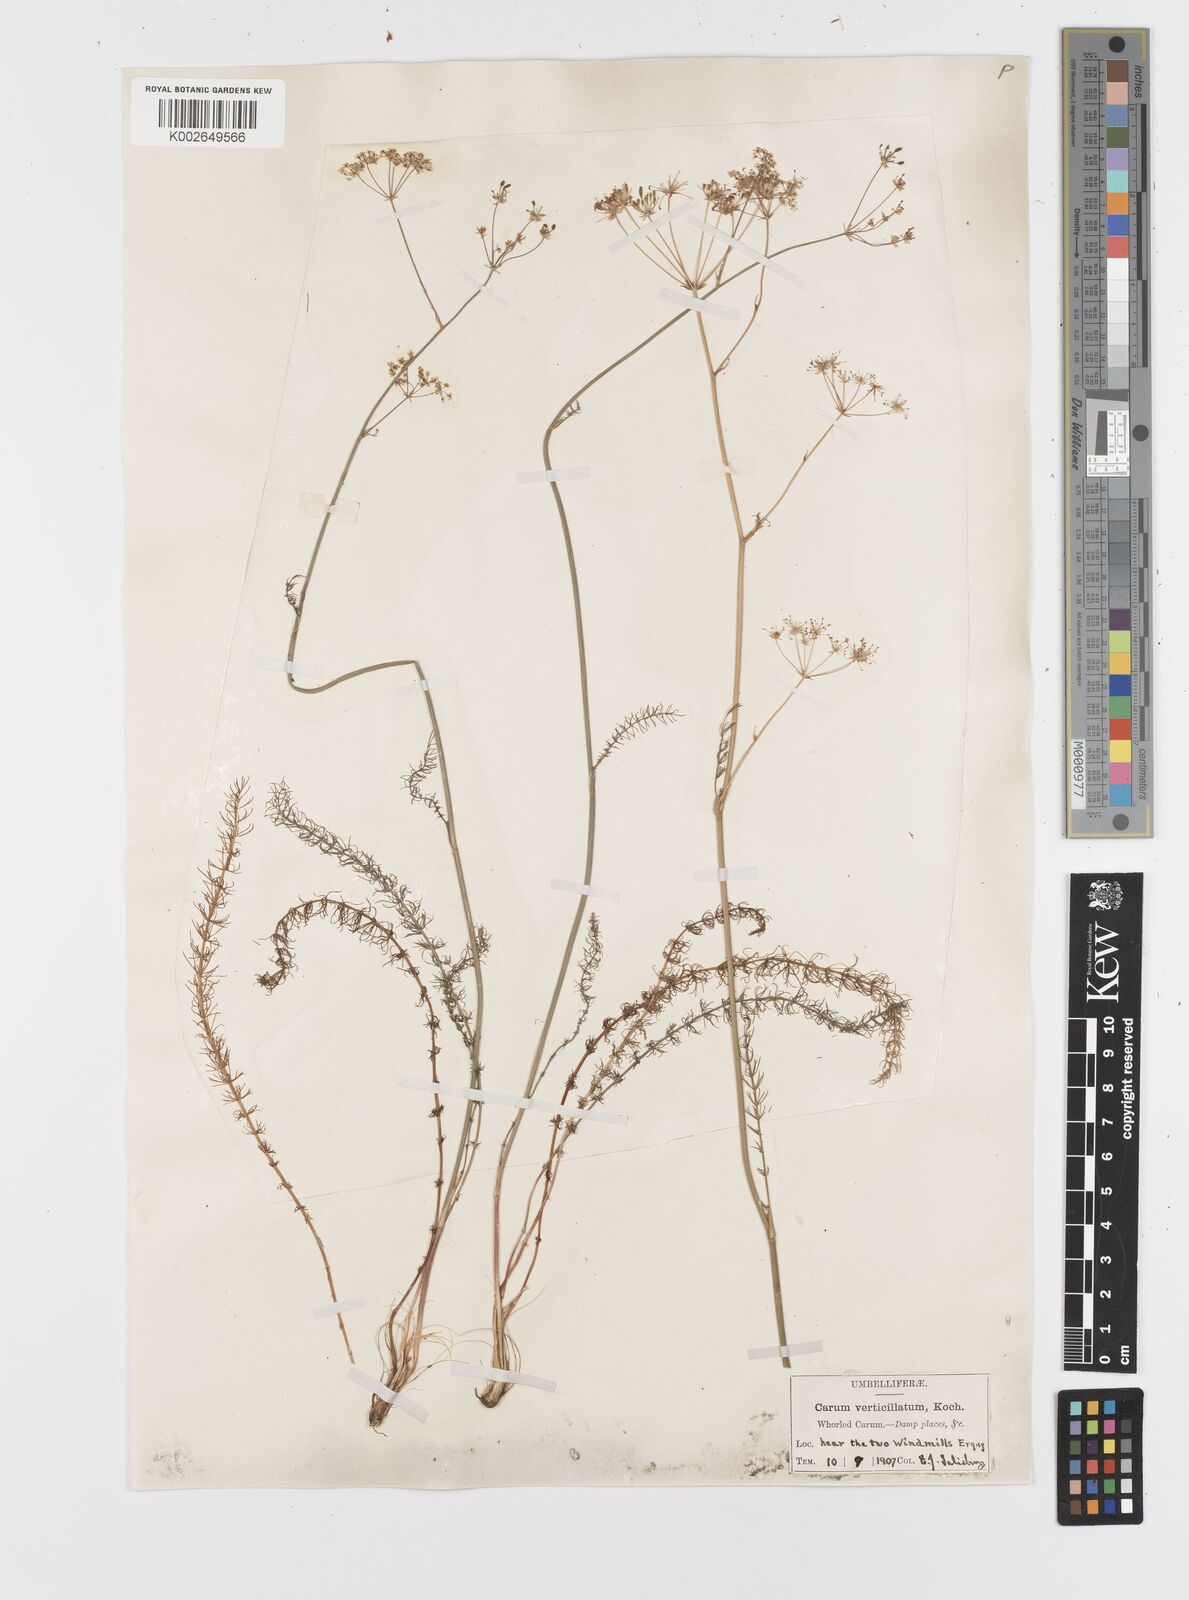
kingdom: Plantae
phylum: Tracheophyta
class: Magnoliopsida
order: Apiales
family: Apiaceae
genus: Trocdaris
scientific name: Trocdaris verticillatum
